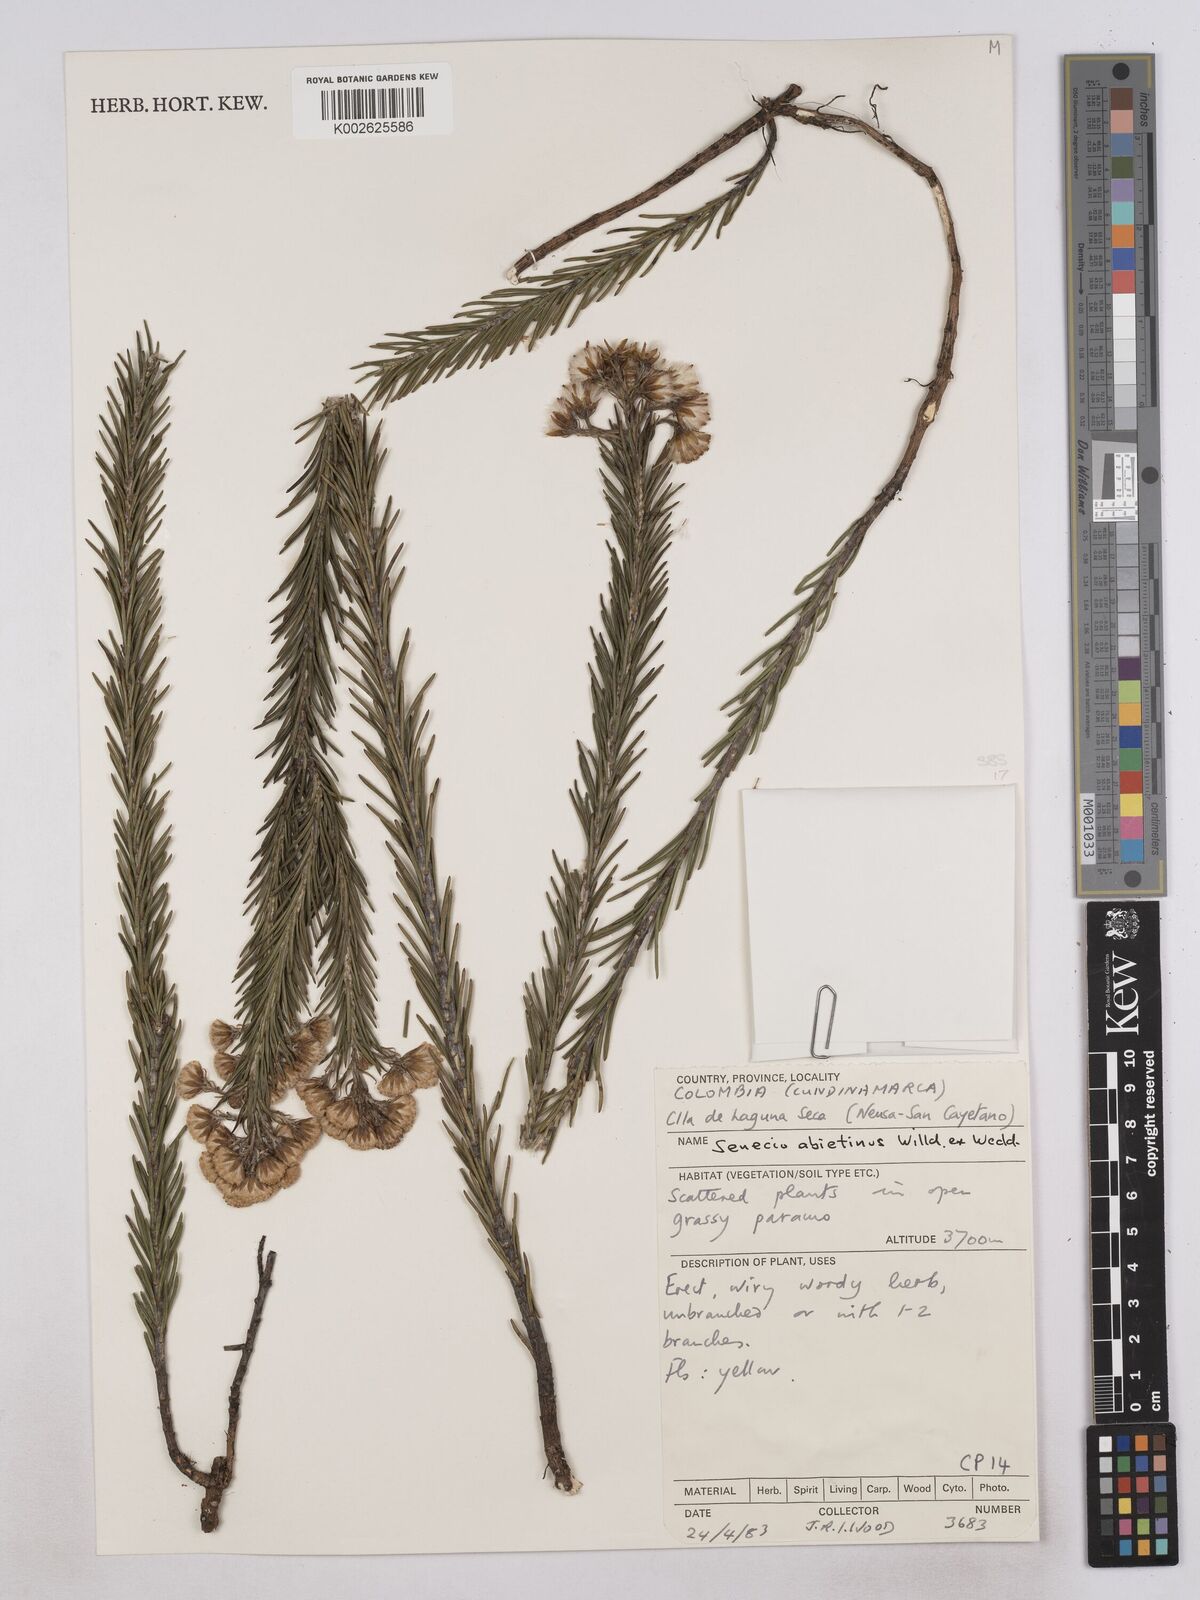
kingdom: Plantae
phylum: Tracheophyta
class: Magnoliopsida
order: Asterales
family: Asteraceae
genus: Monticalia
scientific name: Monticalia abietina
